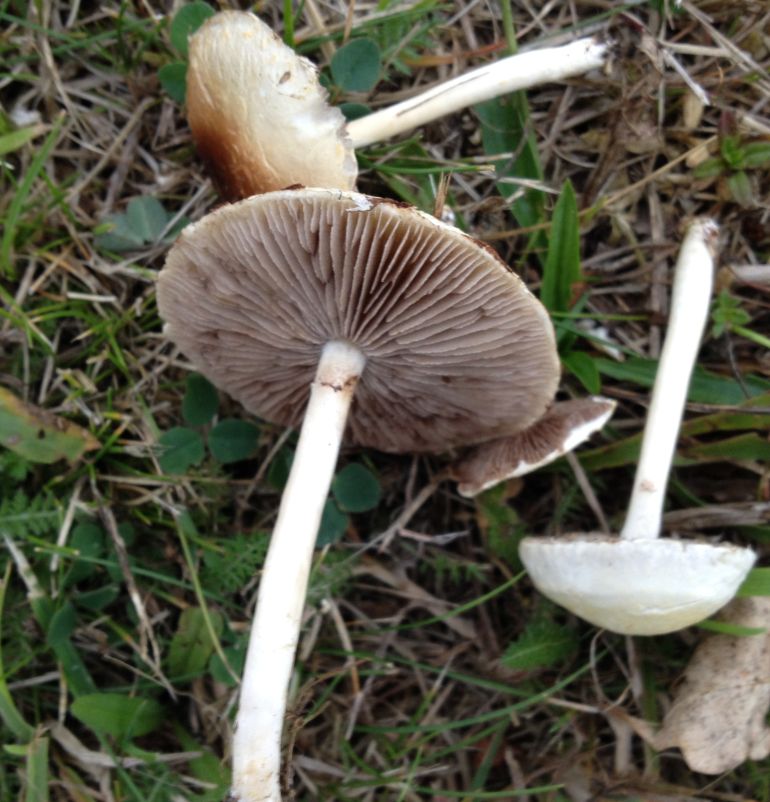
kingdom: Fungi
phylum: Basidiomycota
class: Agaricomycetes
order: Agaricales
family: Strophariaceae
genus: Agrocybe
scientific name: Agrocybe dura
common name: fastkødet agerhat
